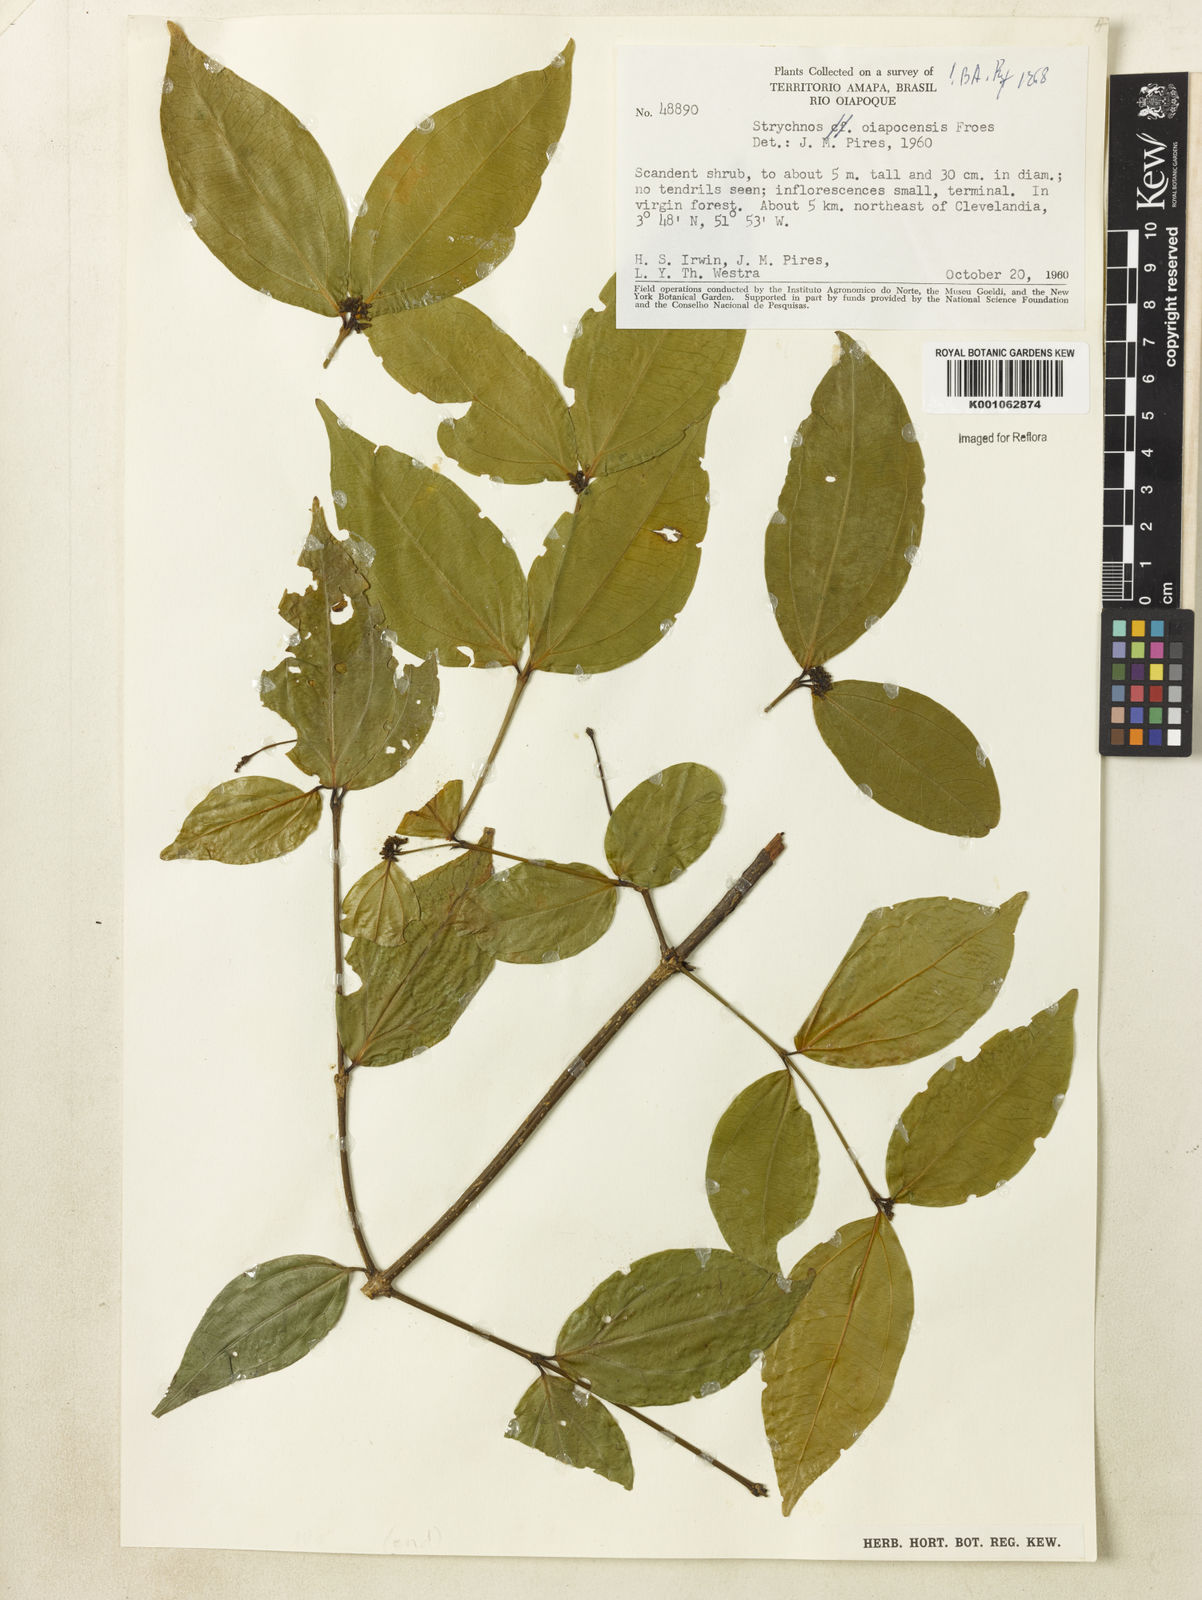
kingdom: Plantae
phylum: Tracheophyta
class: Magnoliopsida
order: Gentianales
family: Loganiaceae
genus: Strychnos
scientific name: Strychnos
